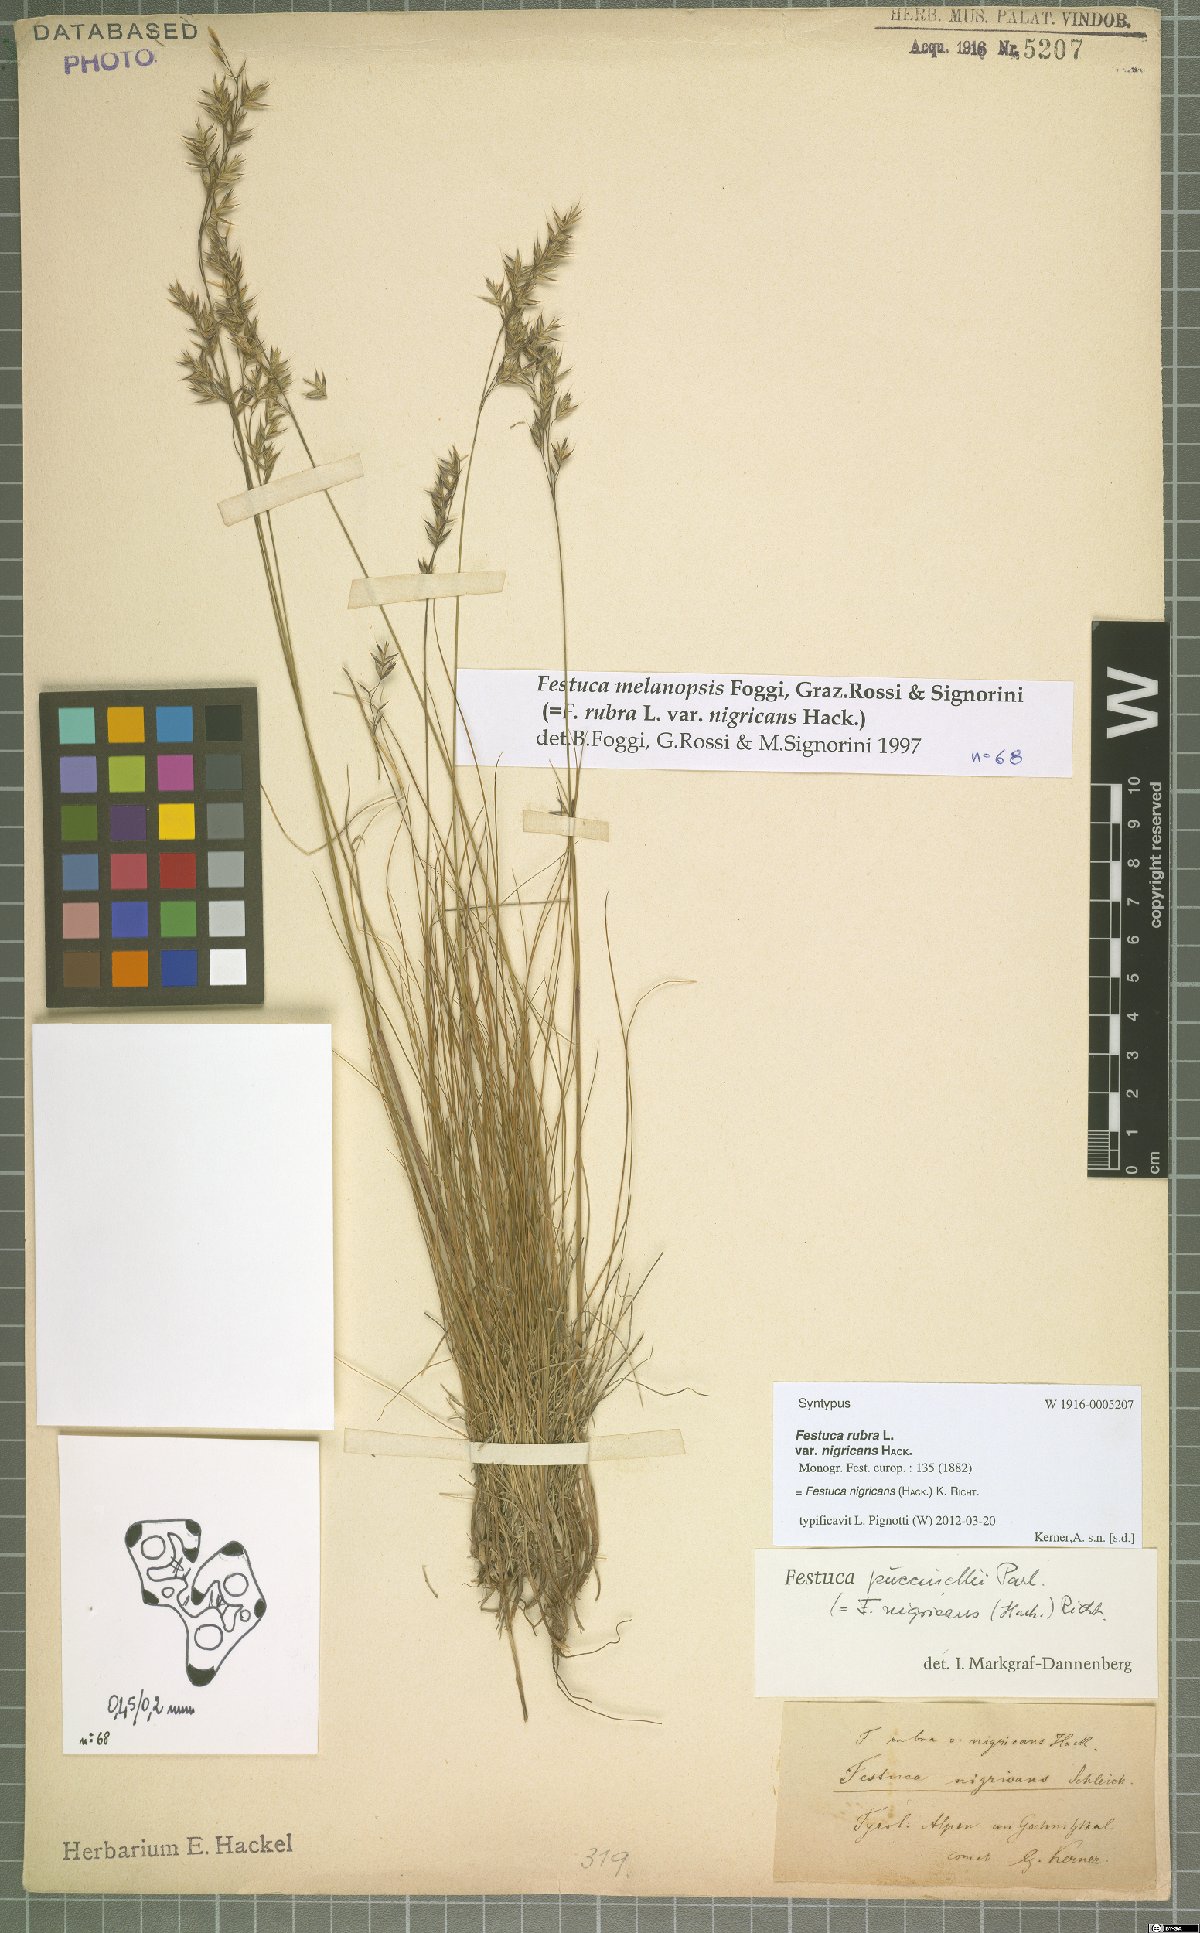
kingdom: Plantae
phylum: Tracheophyta
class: Liliopsida
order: Poales
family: Poaceae
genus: Festuca
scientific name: Festuca violacea
